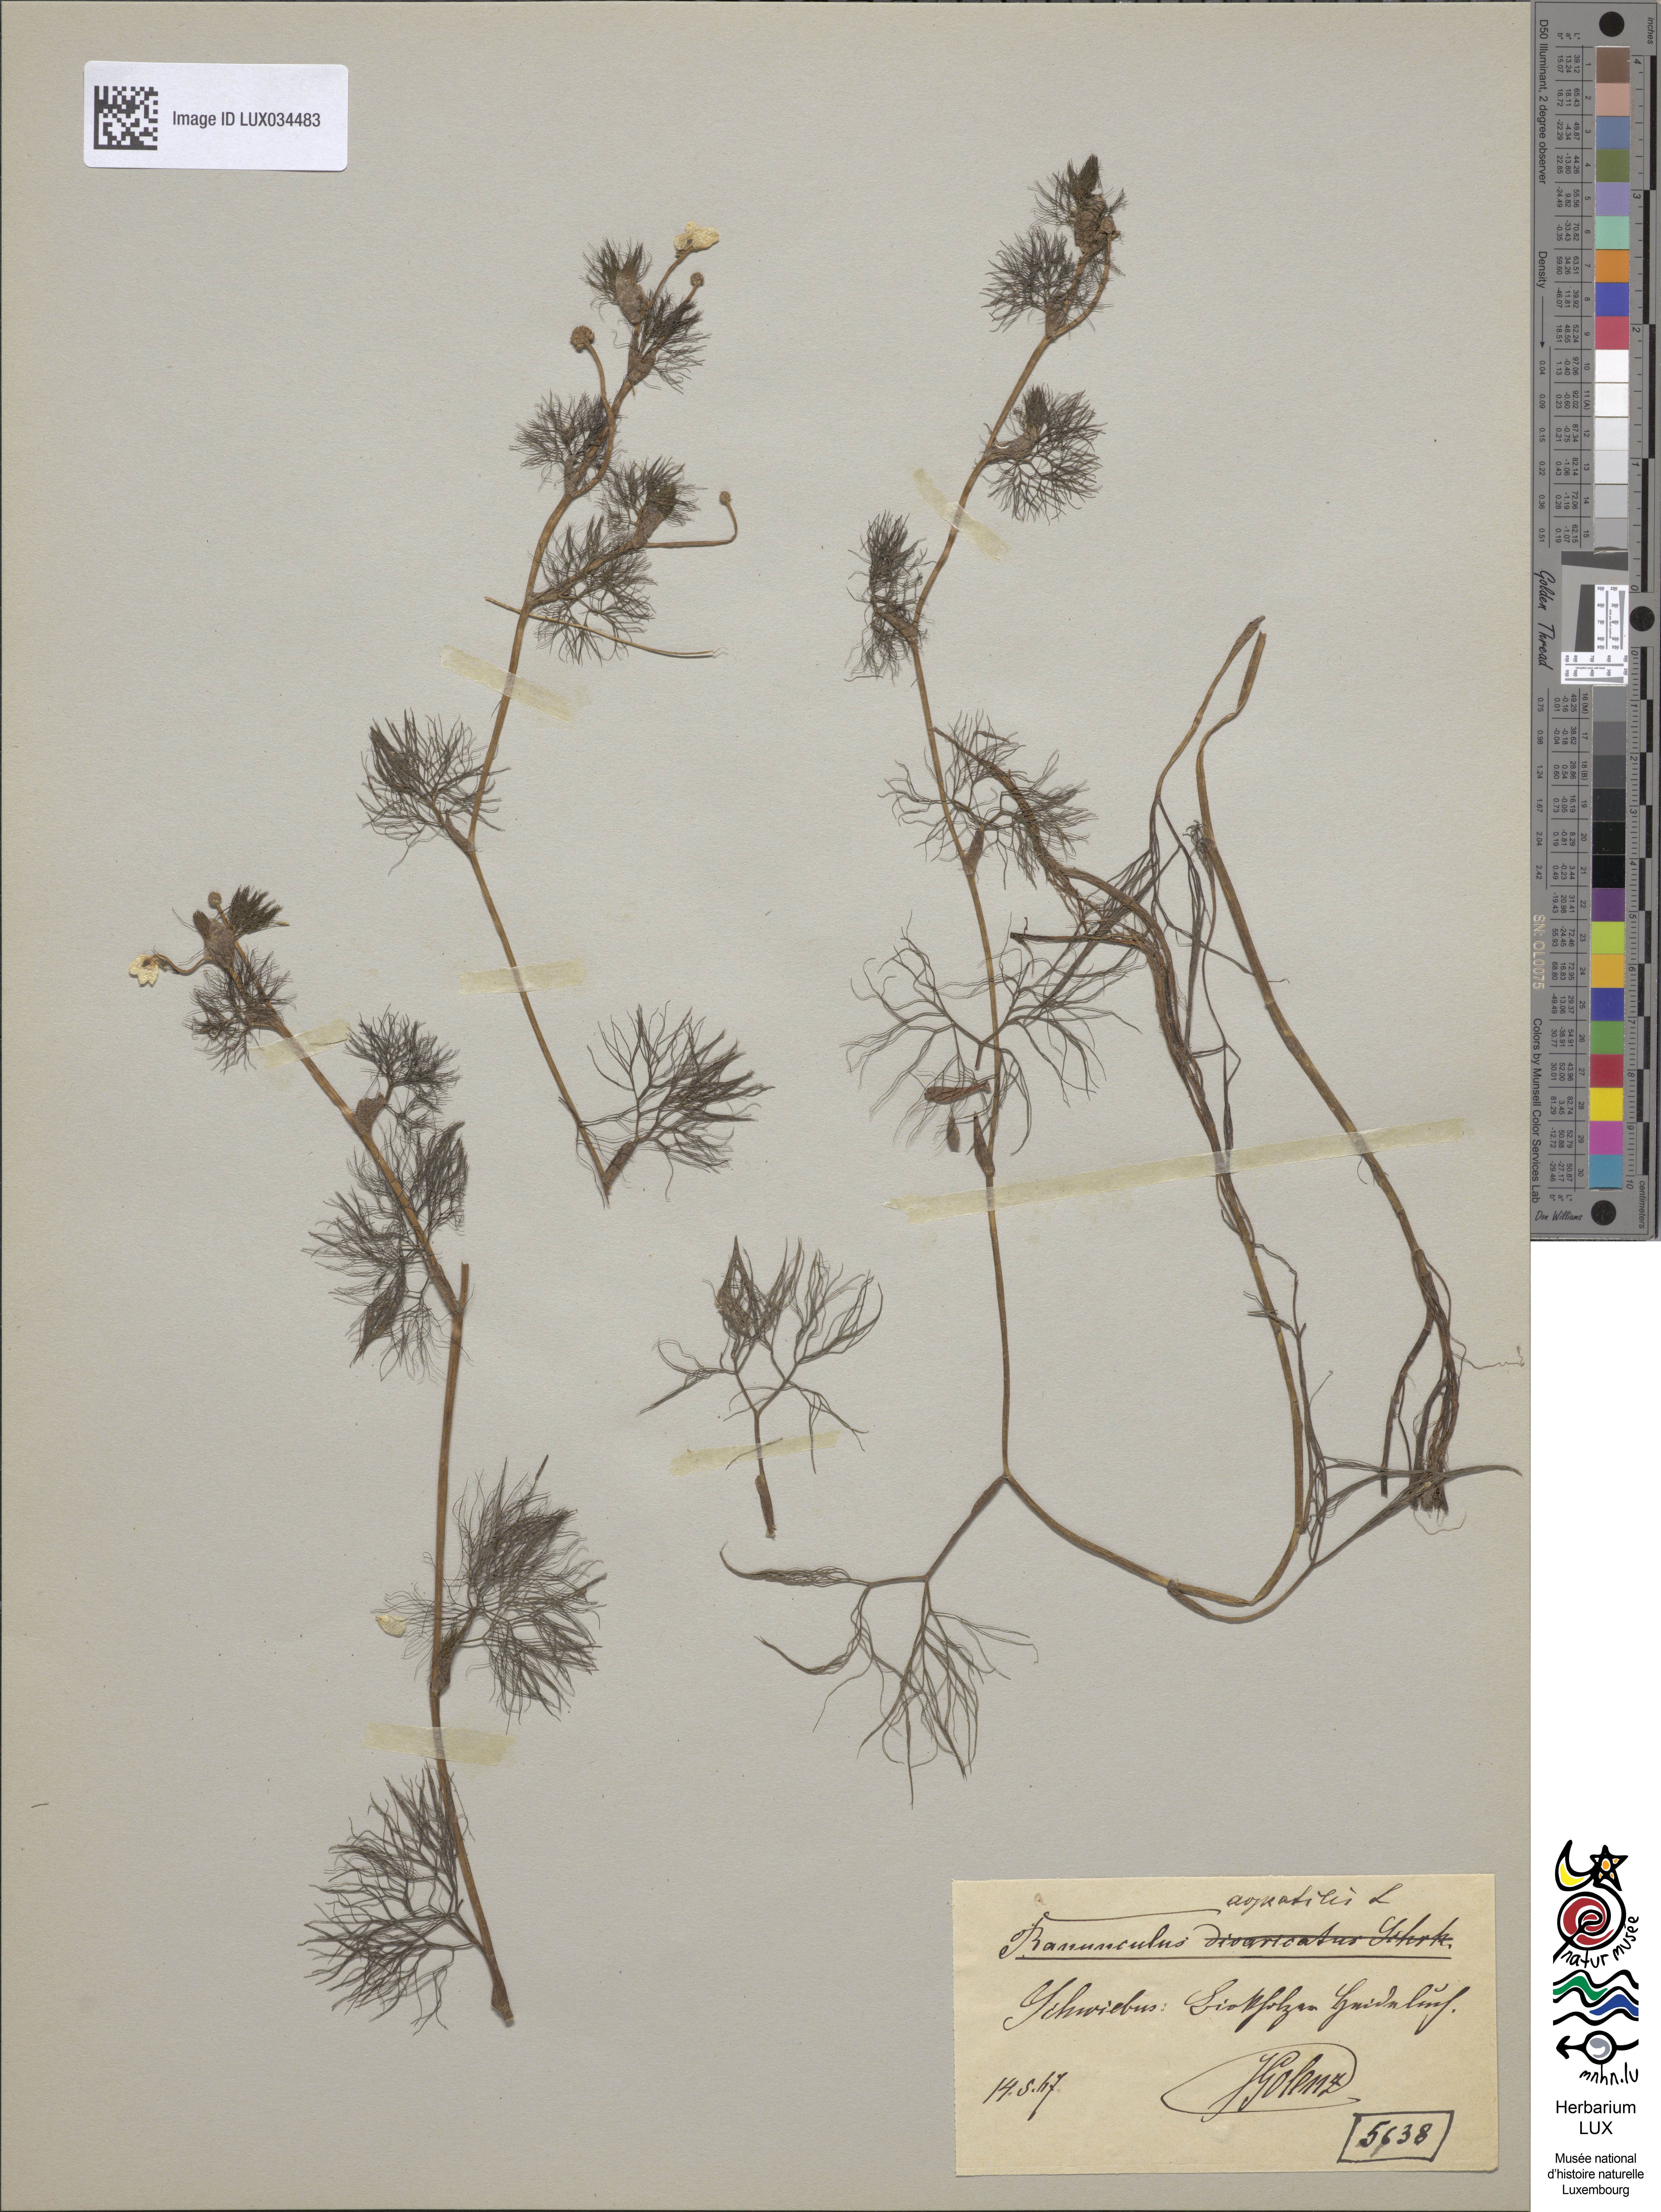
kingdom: Plantae
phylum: Tracheophyta
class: Magnoliopsida
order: Ranunculales
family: Ranunculaceae
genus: Ranunculus
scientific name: Ranunculus aquatilis
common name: Common water-crowfoot
